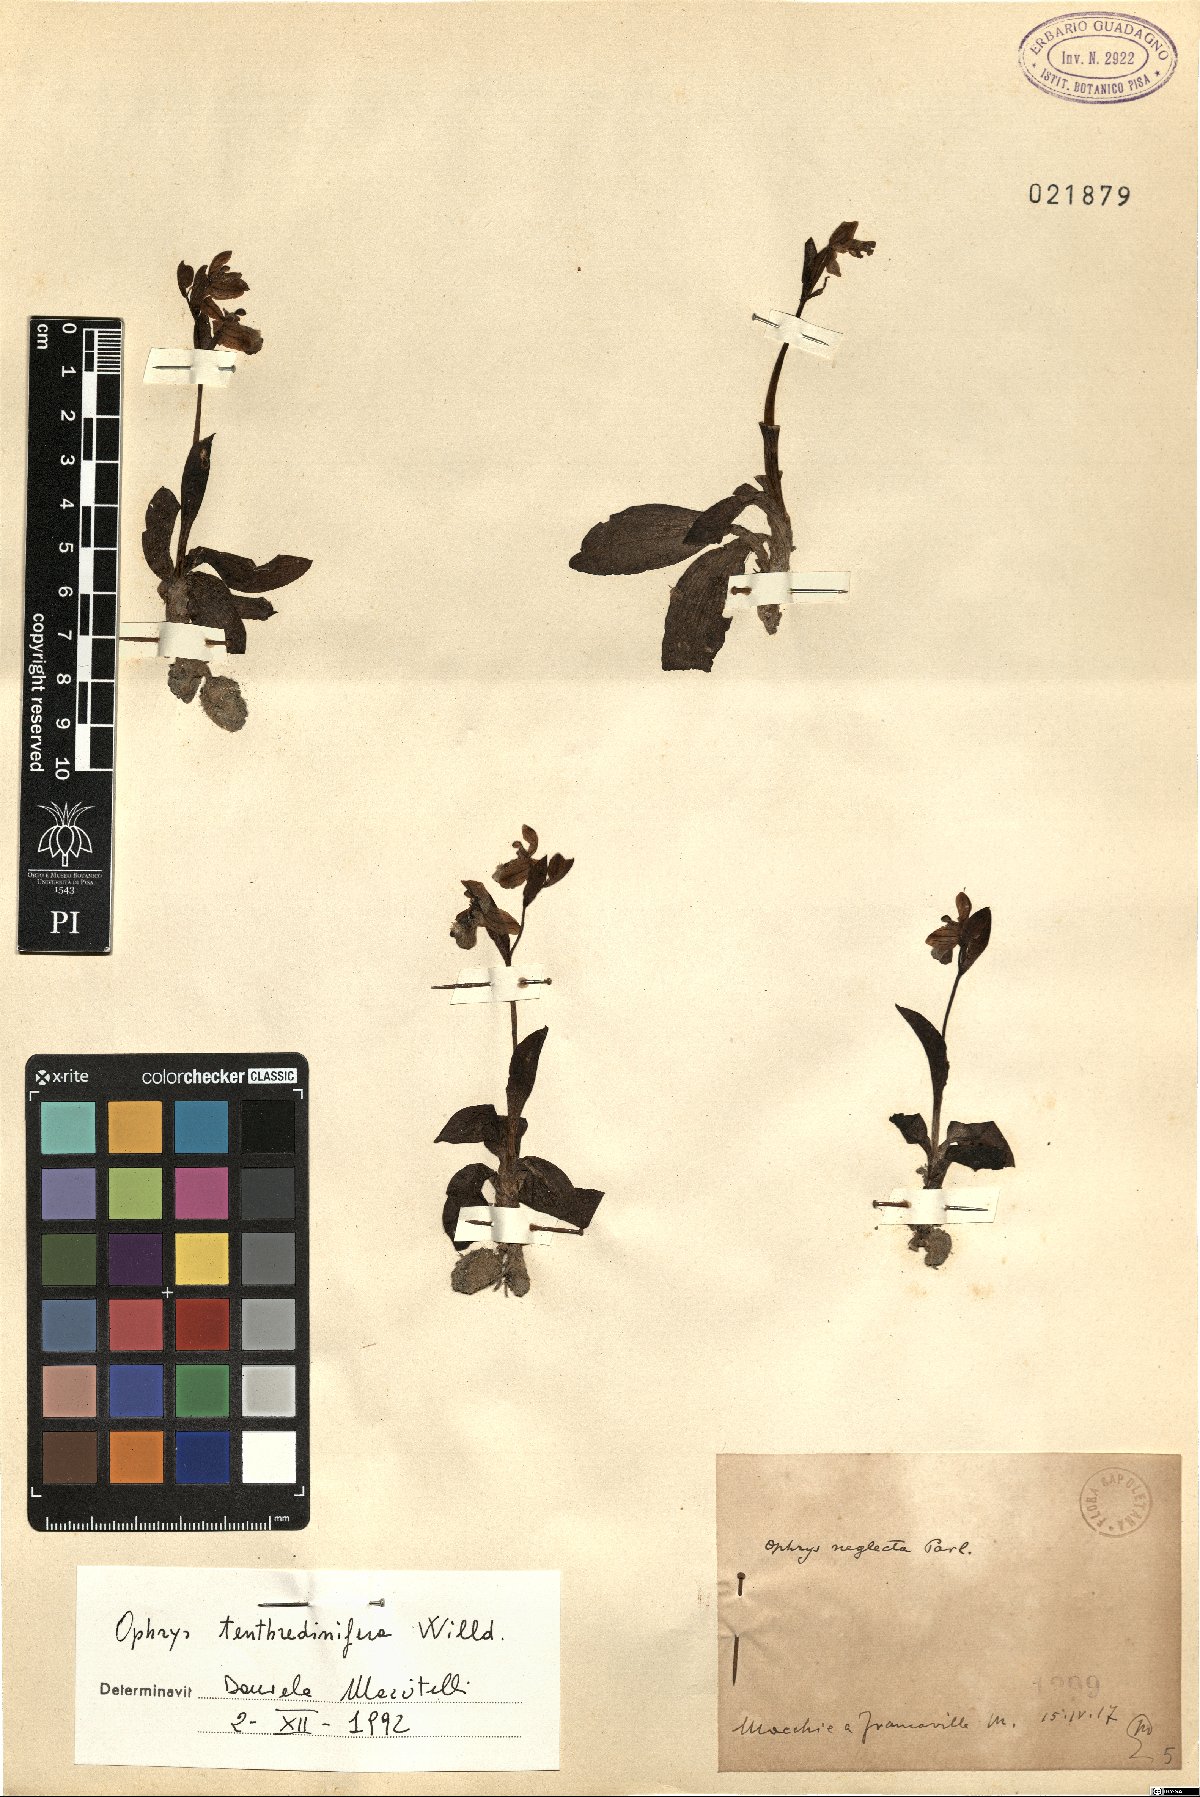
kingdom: Plantae
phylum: Tracheophyta
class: Liliopsida
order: Asparagales
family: Orchidaceae
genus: Ophrys
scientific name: Ophrys tenthredinifera
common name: Sawfly orchid
